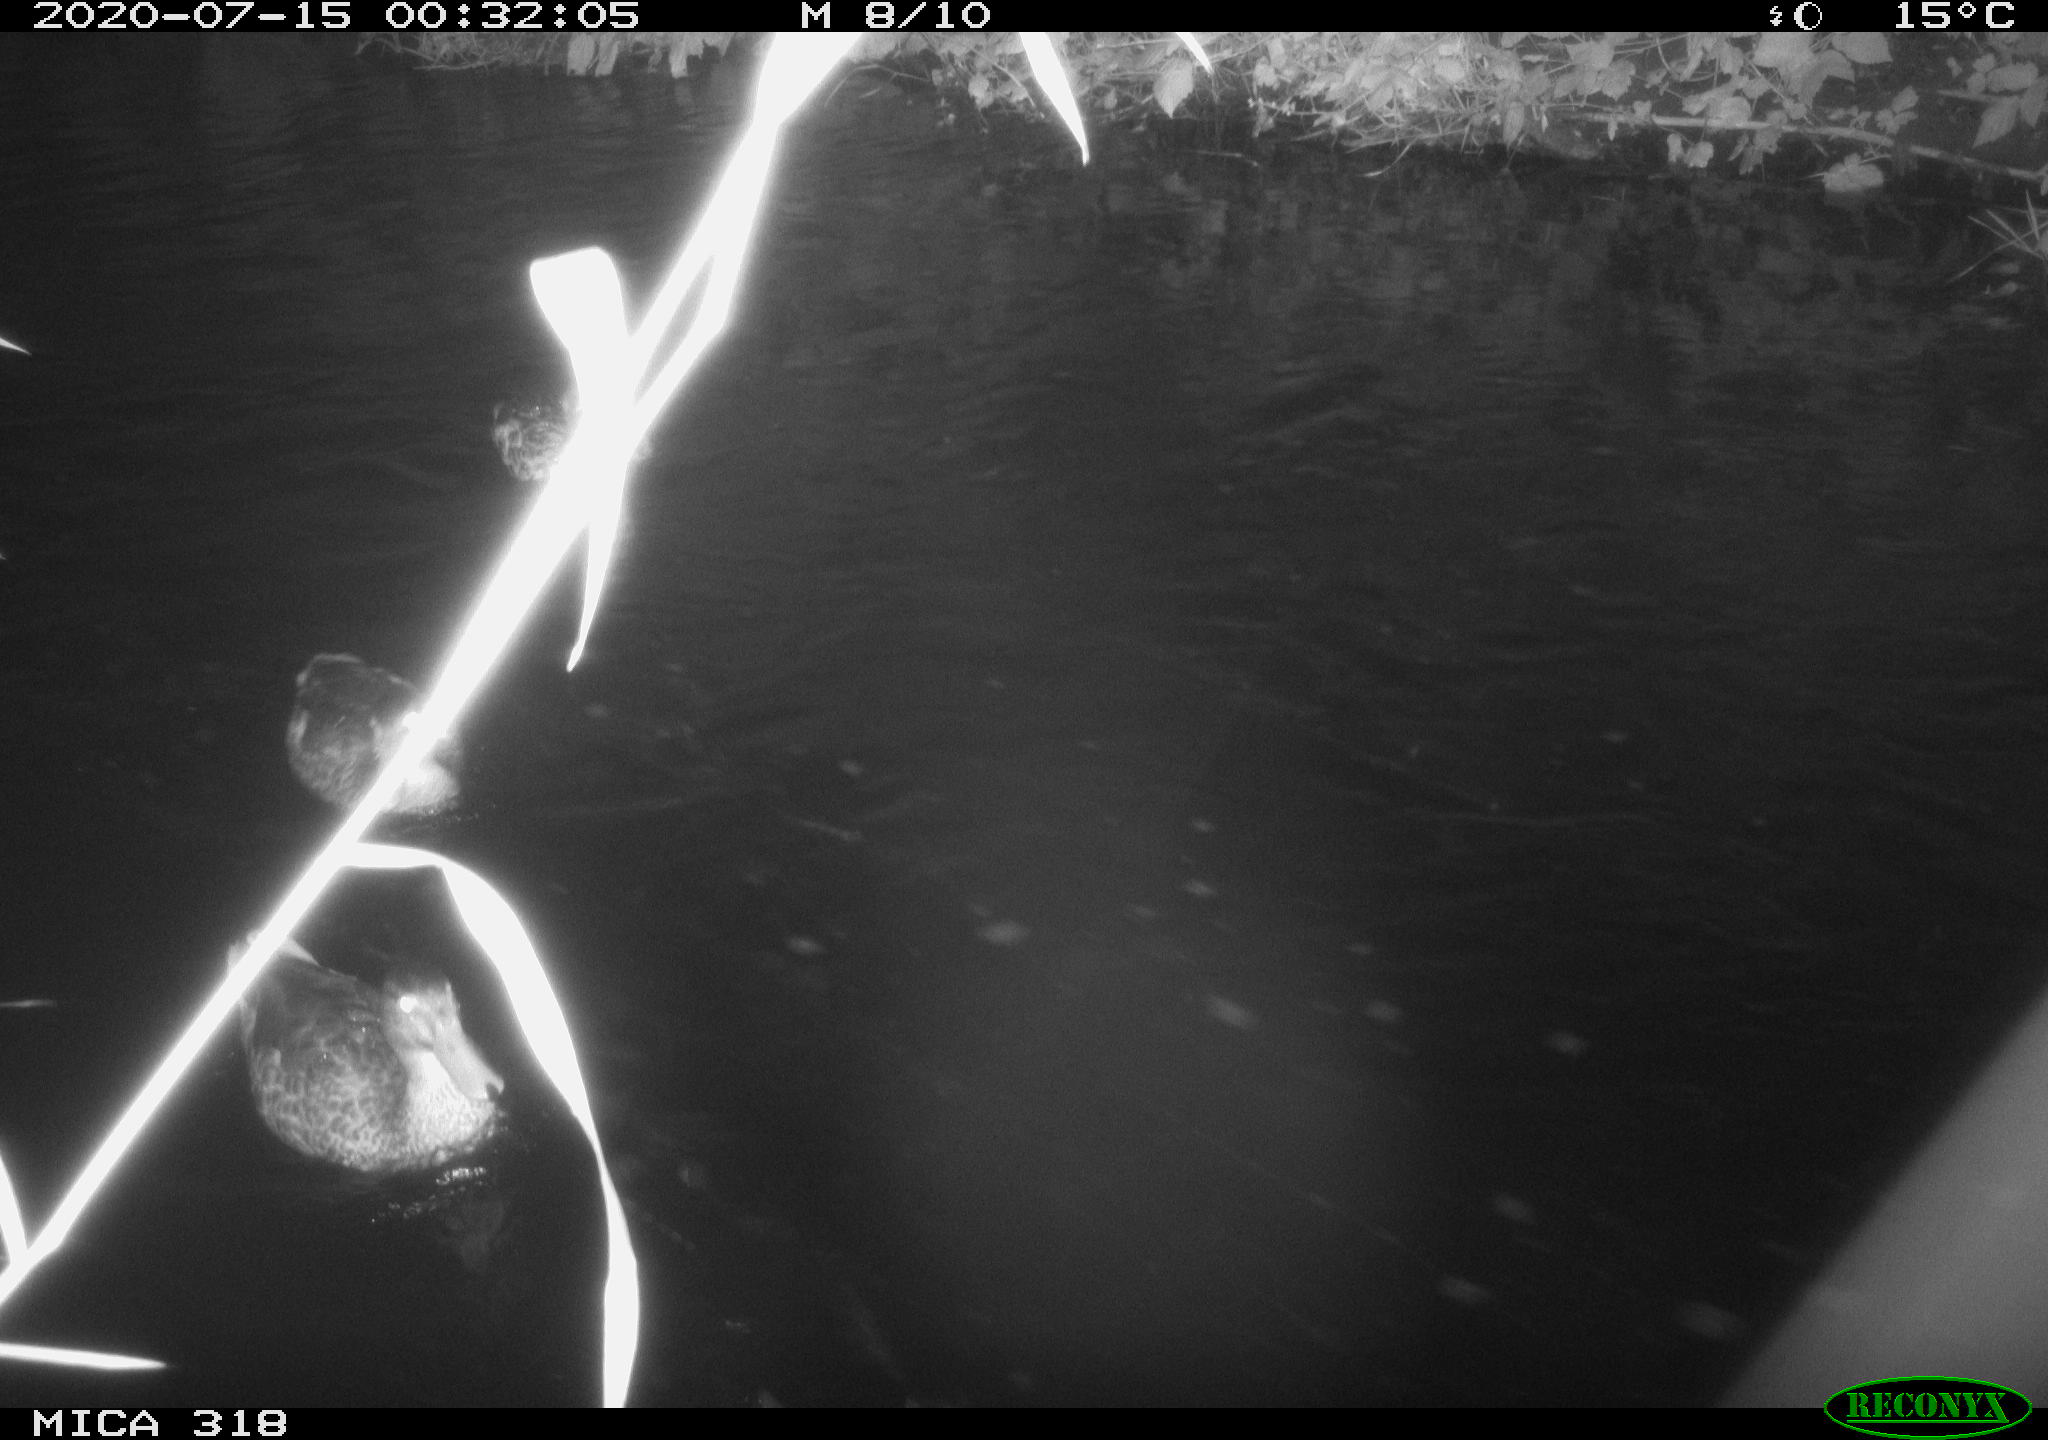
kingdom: Animalia
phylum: Chordata
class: Aves
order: Anseriformes
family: Anatidae
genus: Mareca
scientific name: Mareca strepera
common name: Gadwall
